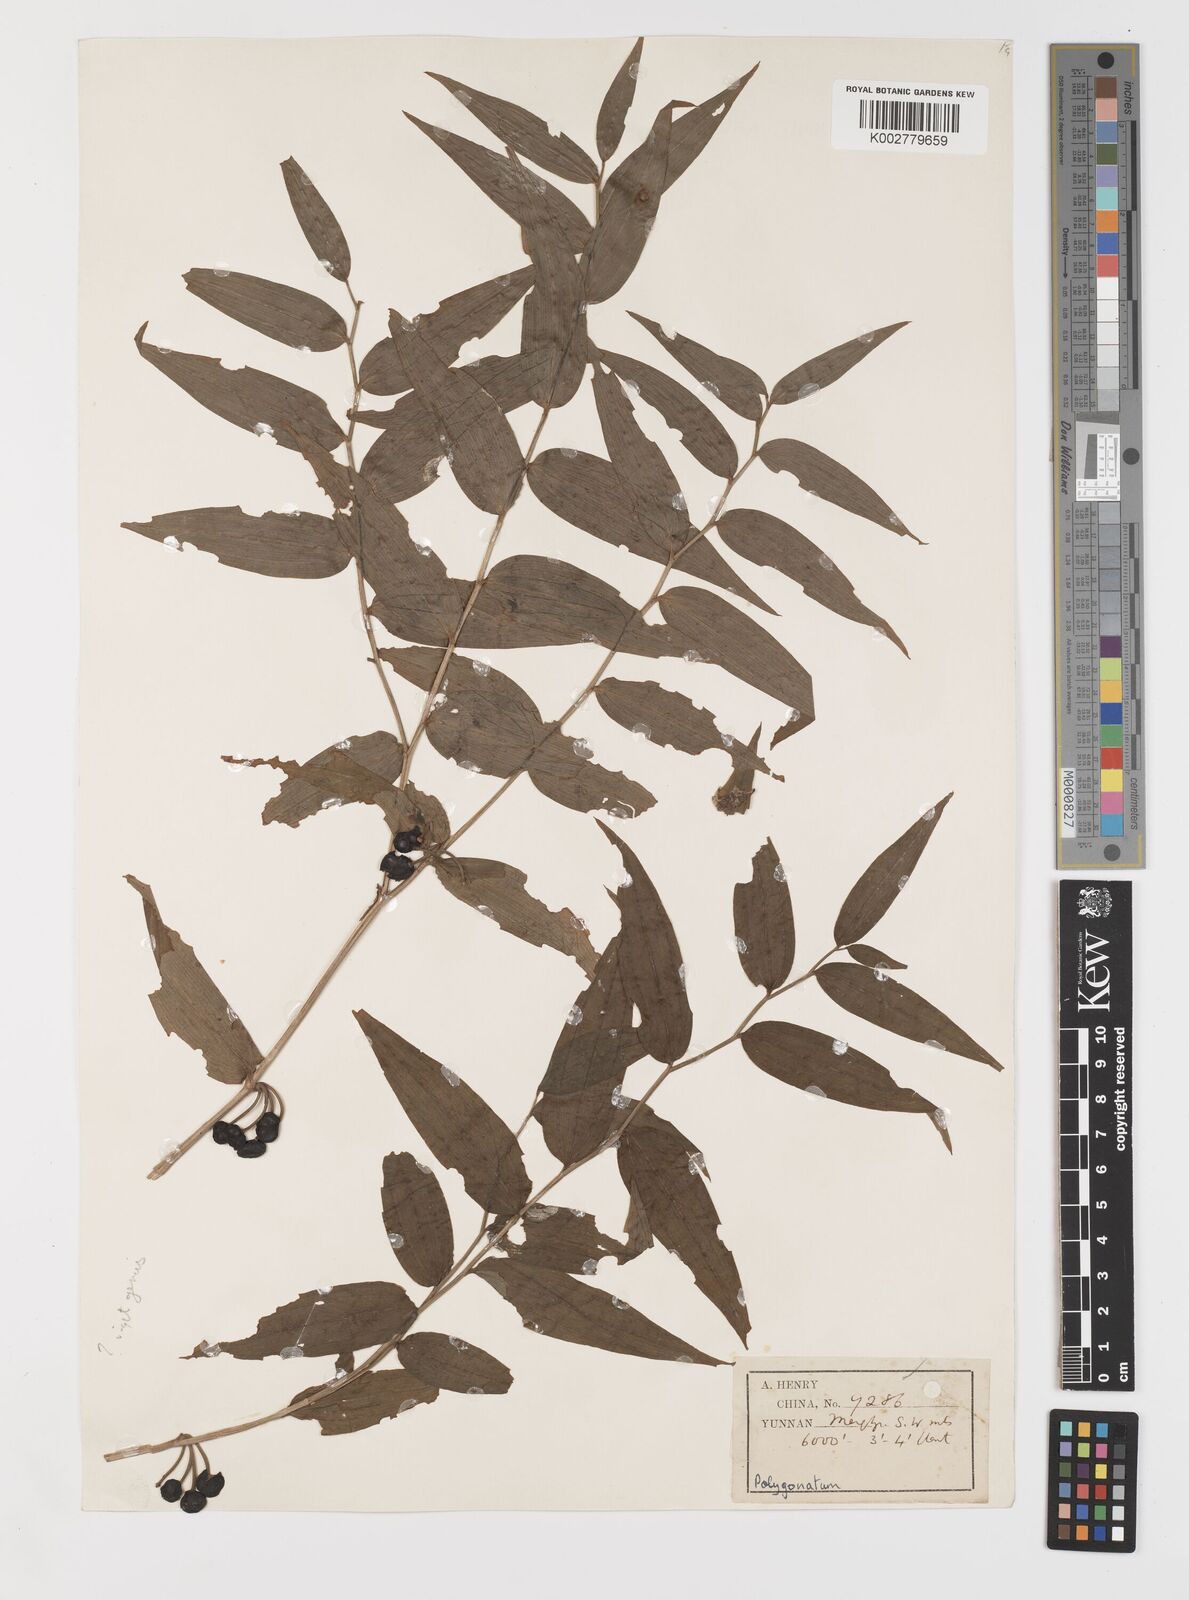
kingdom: Plantae
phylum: Tracheophyta
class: Liliopsida
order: Liliales
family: Colchicaceae
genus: Disporum
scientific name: Disporum cantoniense
